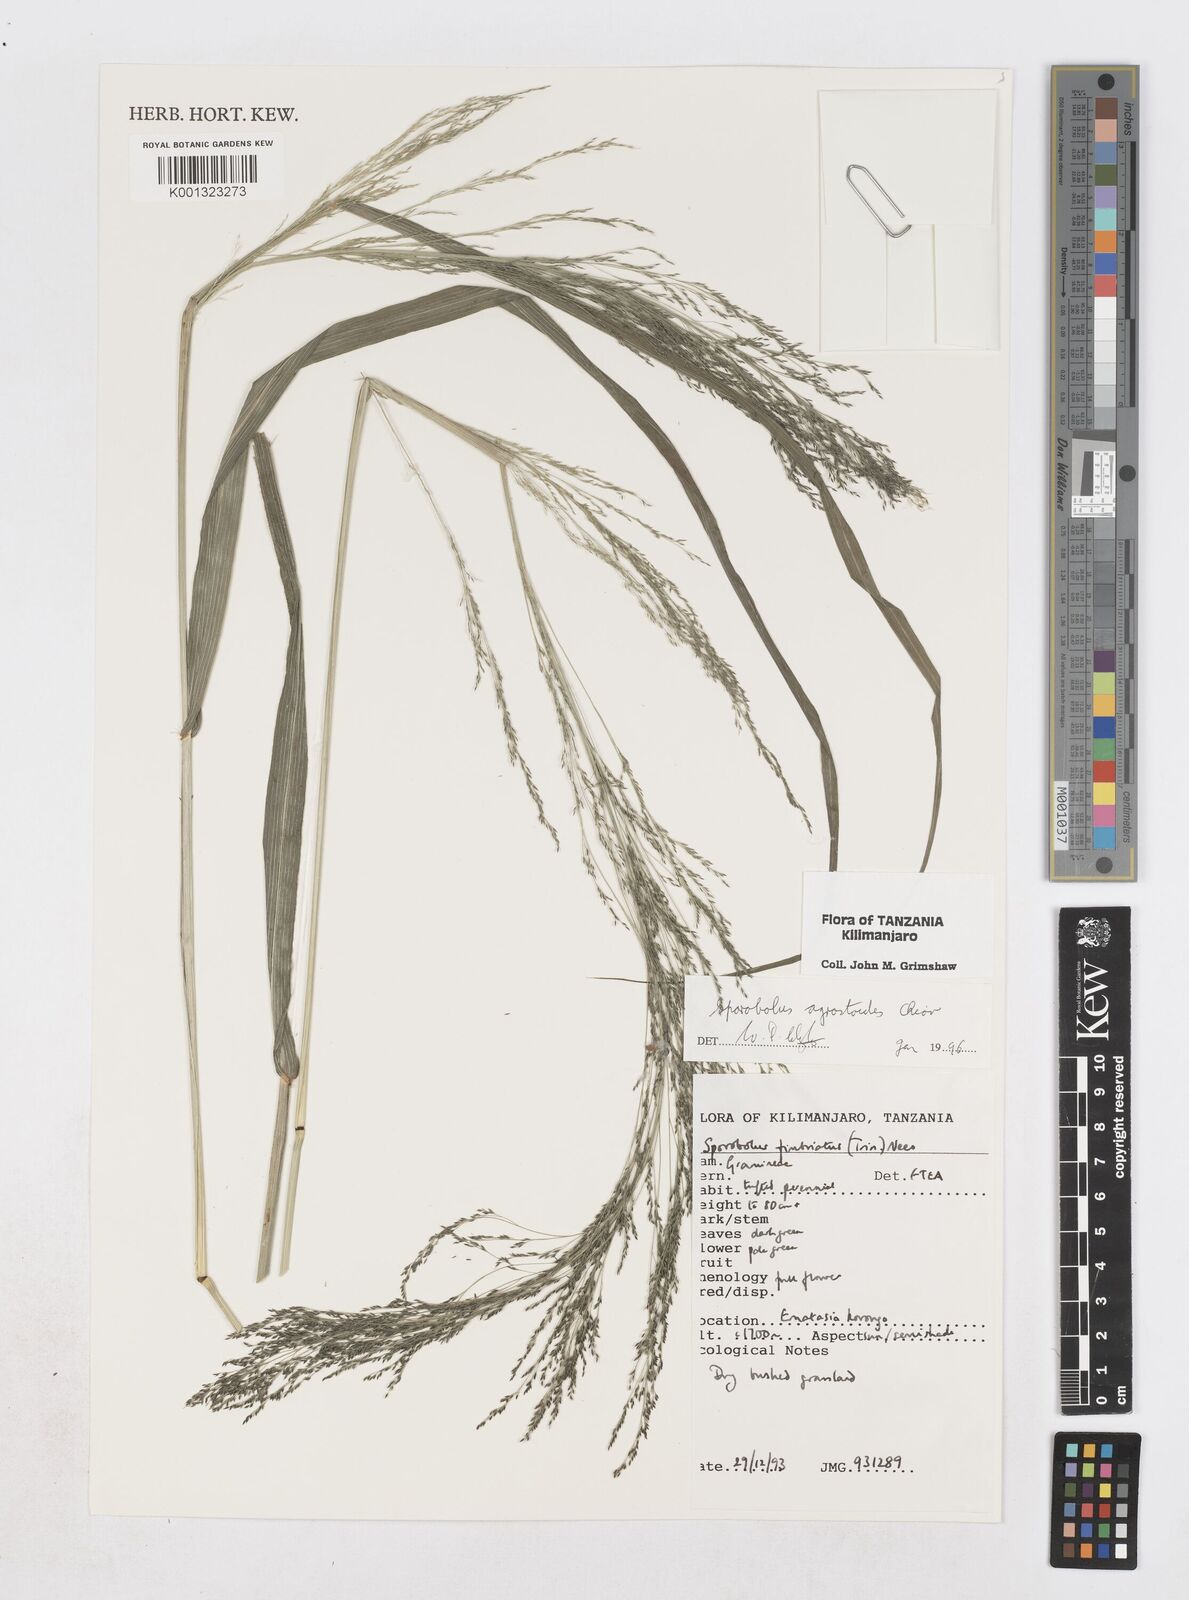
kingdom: Plantae
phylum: Tracheophyta
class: Liliopsida
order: Poales
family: Poaceae
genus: Sporobolus
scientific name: Sporobolus agrostoides
